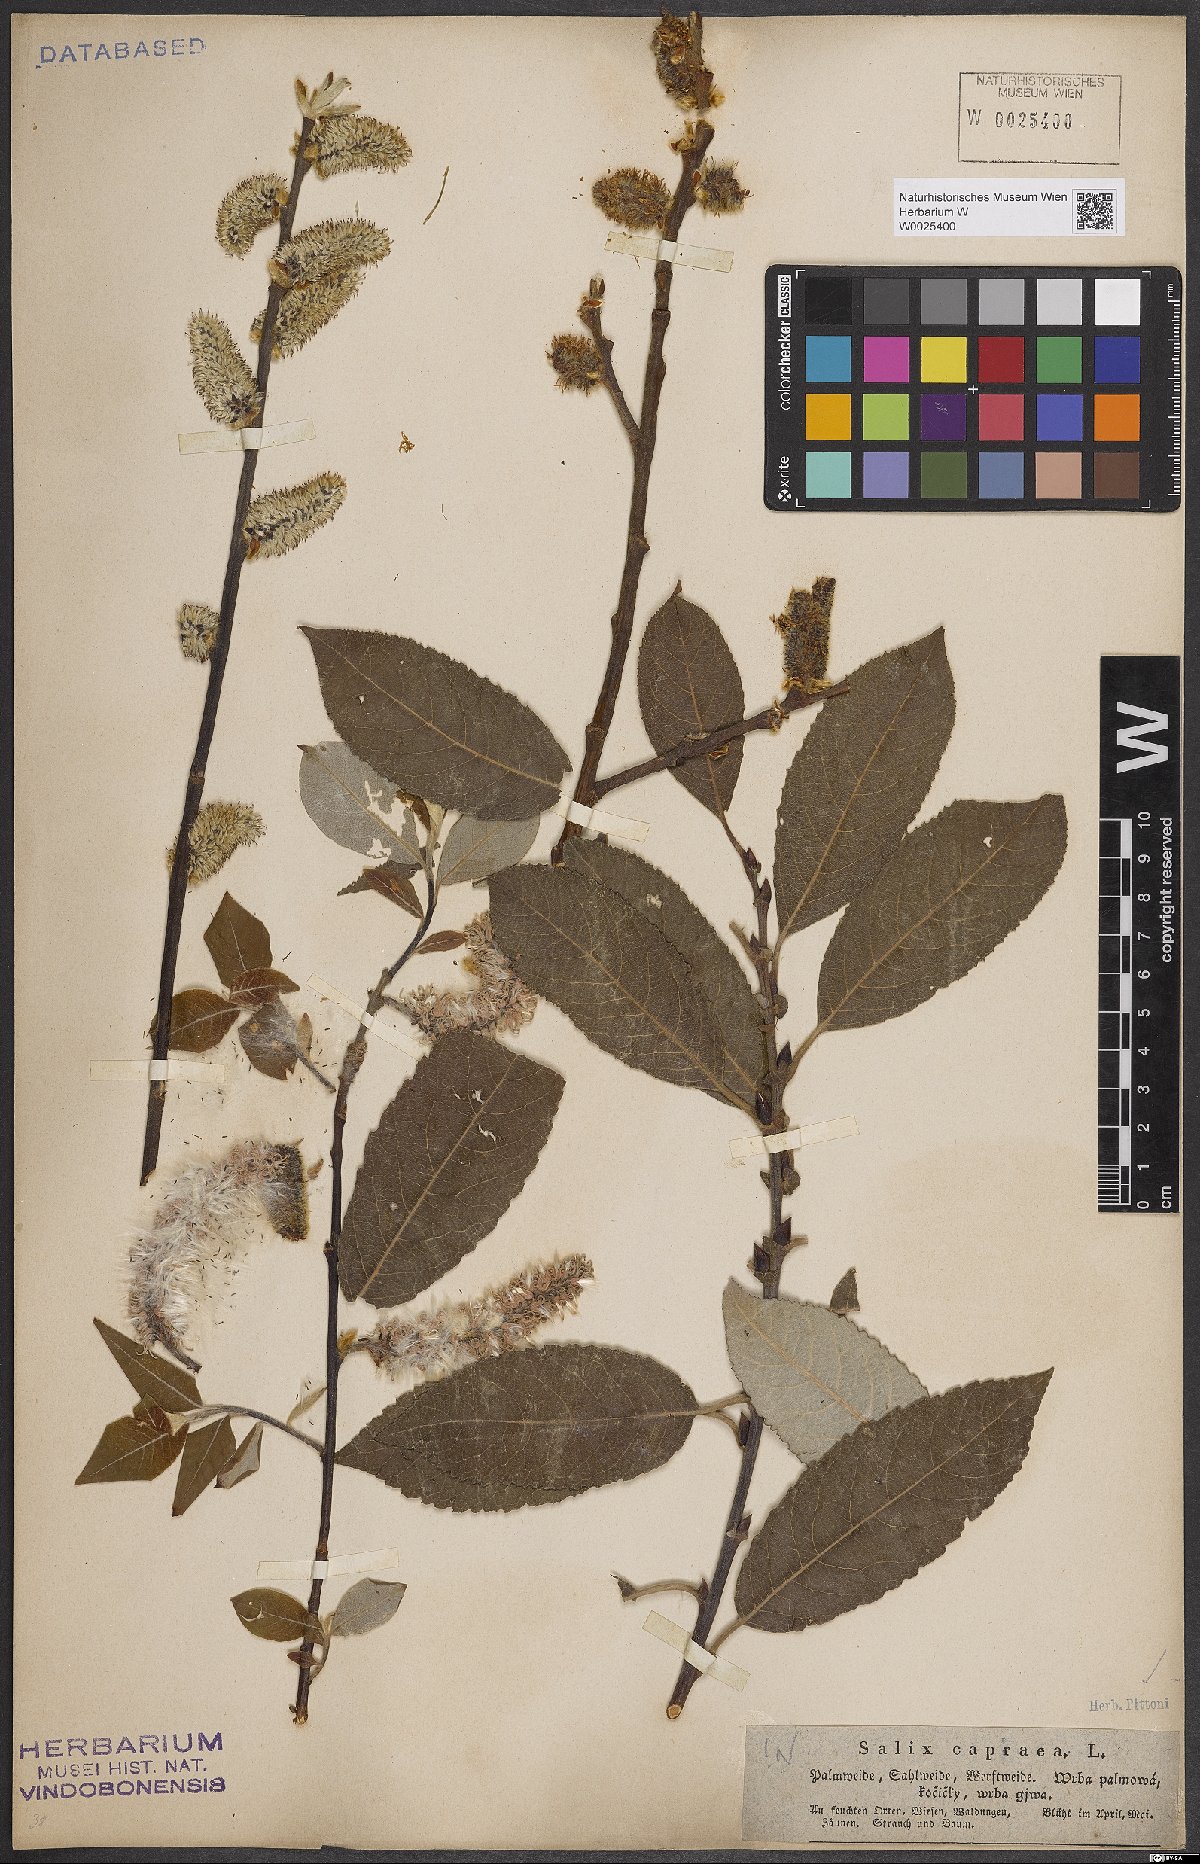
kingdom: Plantae
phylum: Tracheophyta
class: Magnoliopsida
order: Malpighiales
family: Salicaceae
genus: Salix
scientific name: Salix caprea
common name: Goat willow
